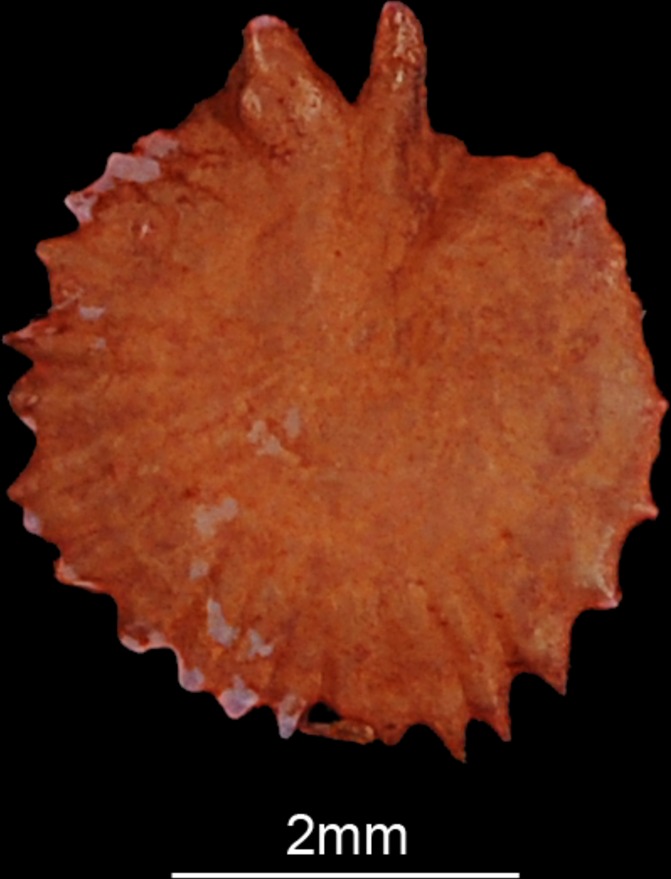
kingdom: Animalia
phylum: Chordata
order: Cypriniformes
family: Cyprinidae
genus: Ballerus
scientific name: Ballerus ballerus
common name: Blue bream
